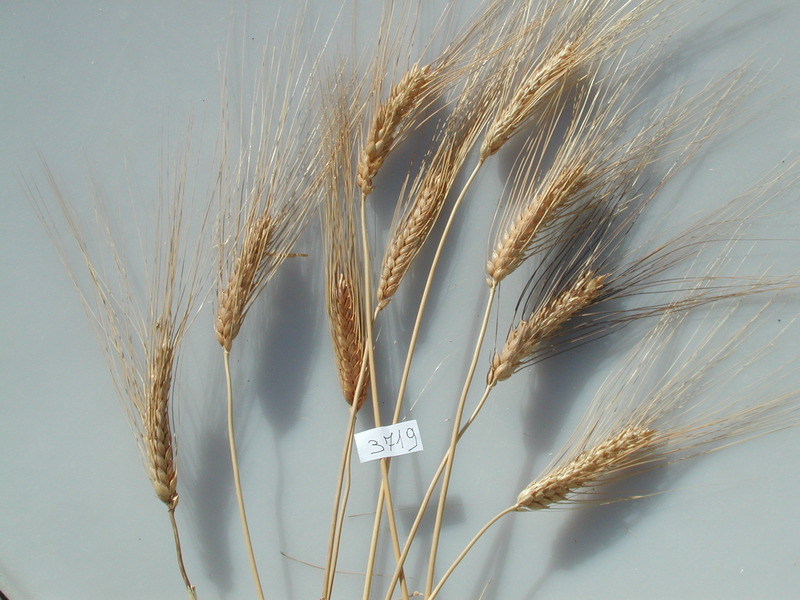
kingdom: Plantae
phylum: Tracheophyta
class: Liliopsida
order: Poales
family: Poaceae
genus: Triticum
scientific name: Triticum turgidum
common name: Wheat
